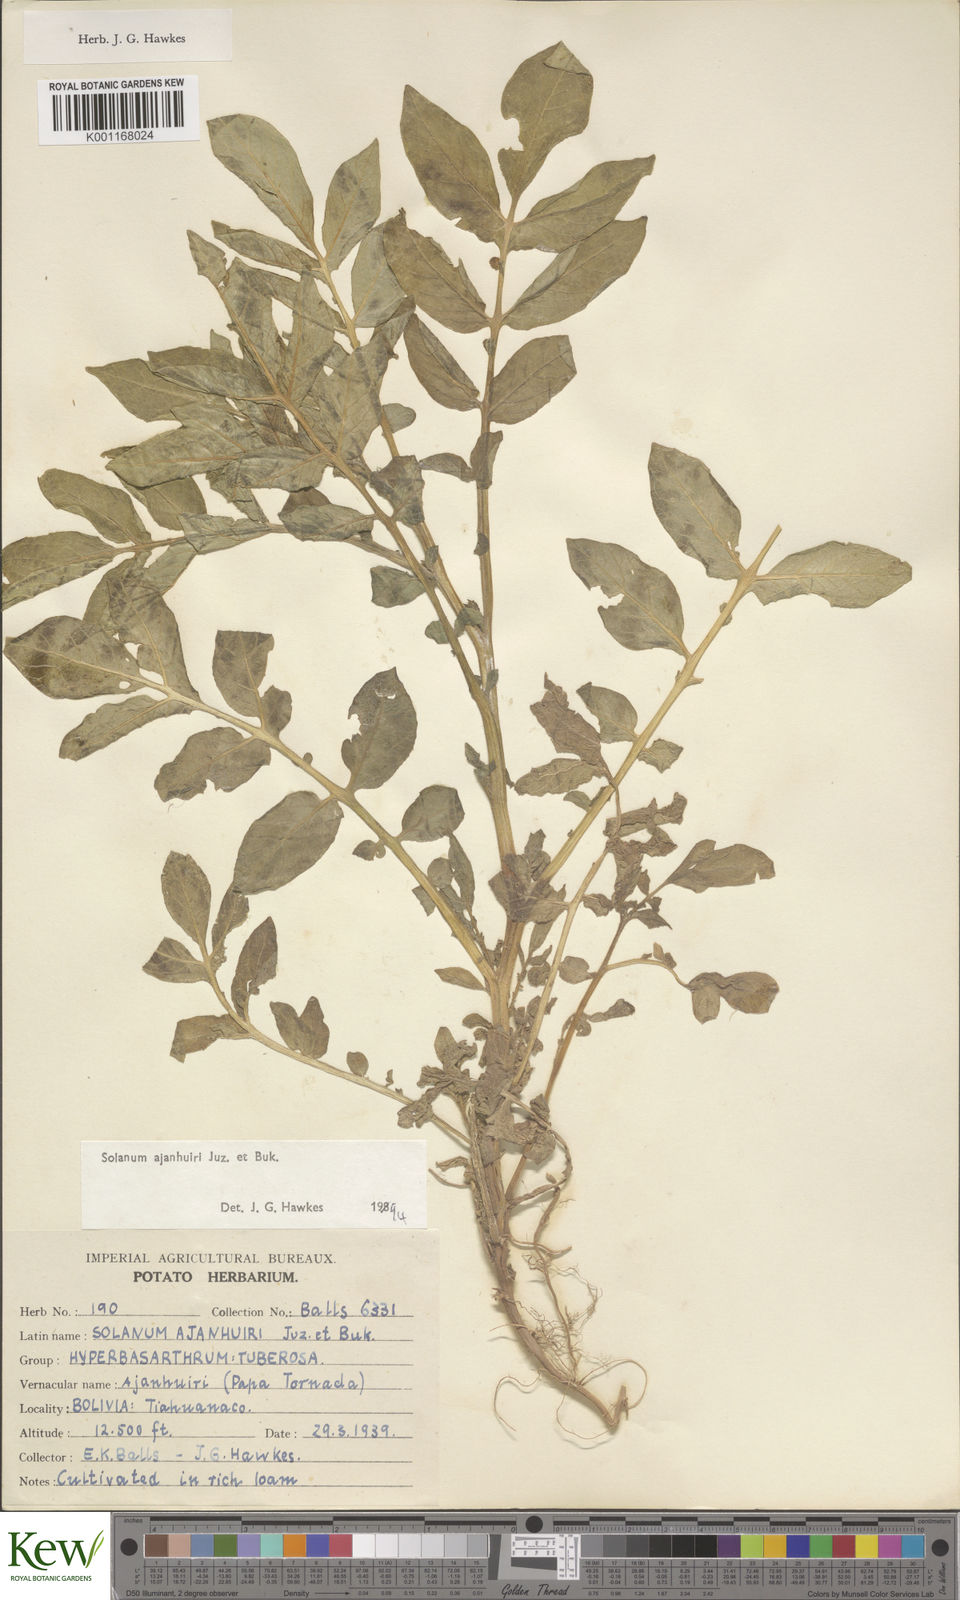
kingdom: Plantae
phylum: Tracheophyta
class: Magnoliopsida
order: Solanales
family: Solanaceae
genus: Solanum
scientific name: Solanum ajanhuiri
